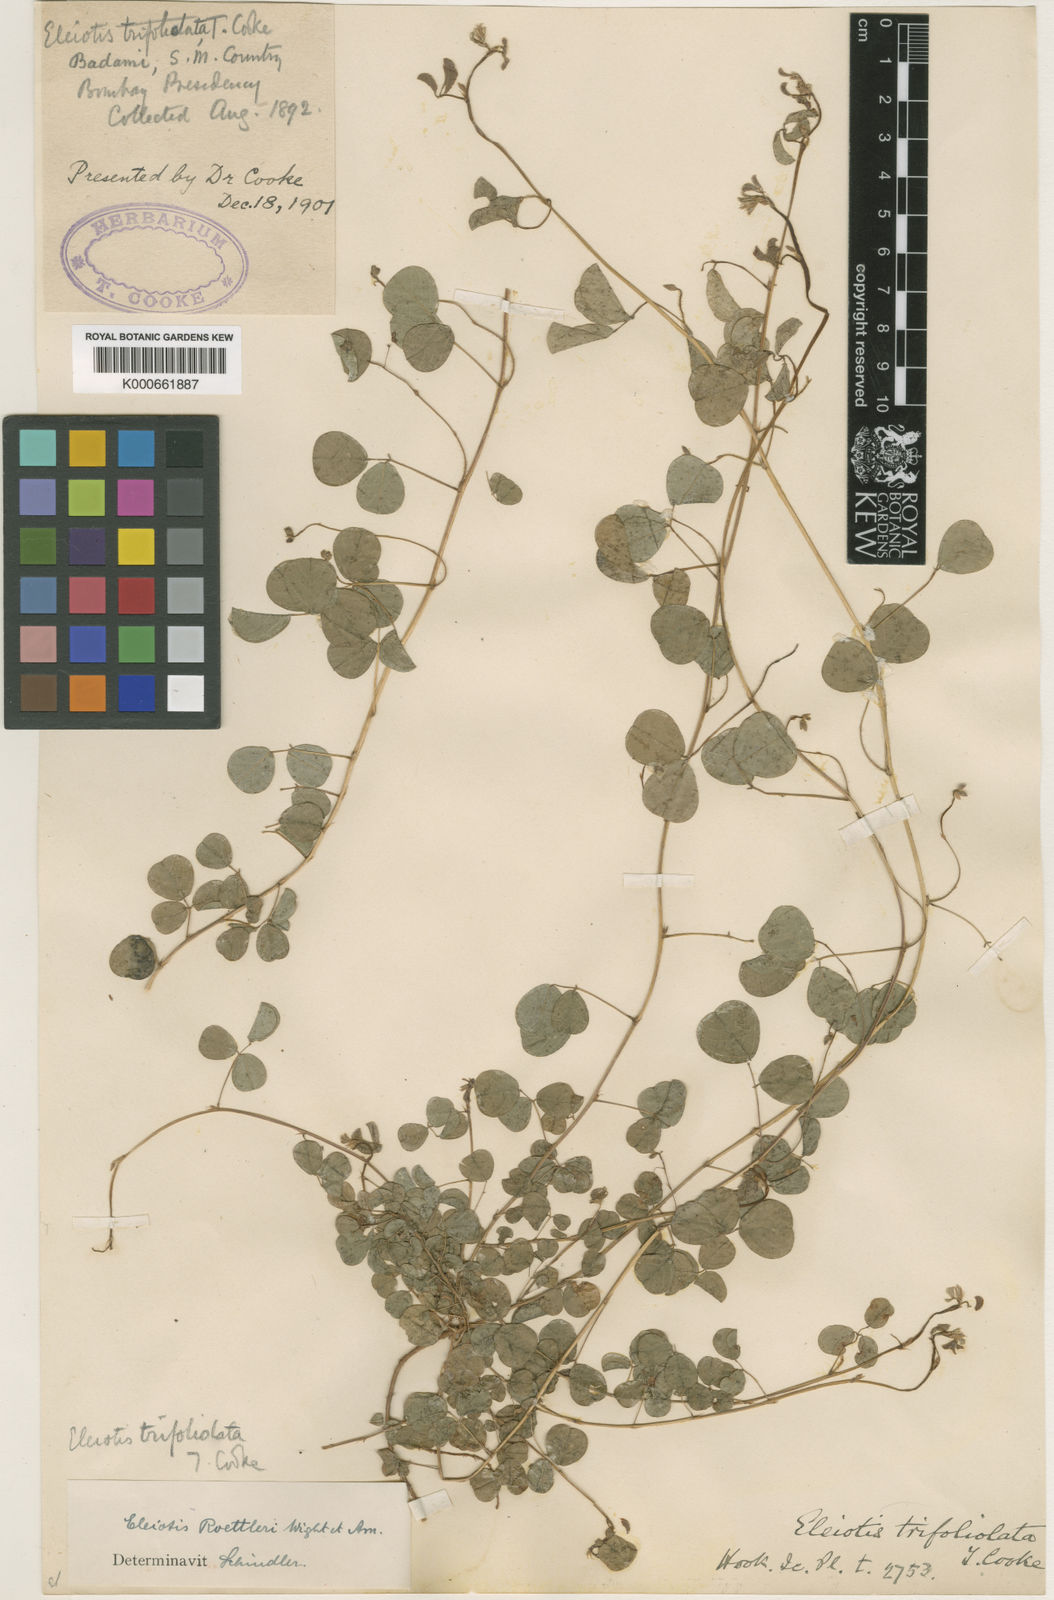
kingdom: Plantae
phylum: Tracheophyta
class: Magnoliopsida
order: Fabales
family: Fabaceae
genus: Eleiotis
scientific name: Eleiotis rottleri
